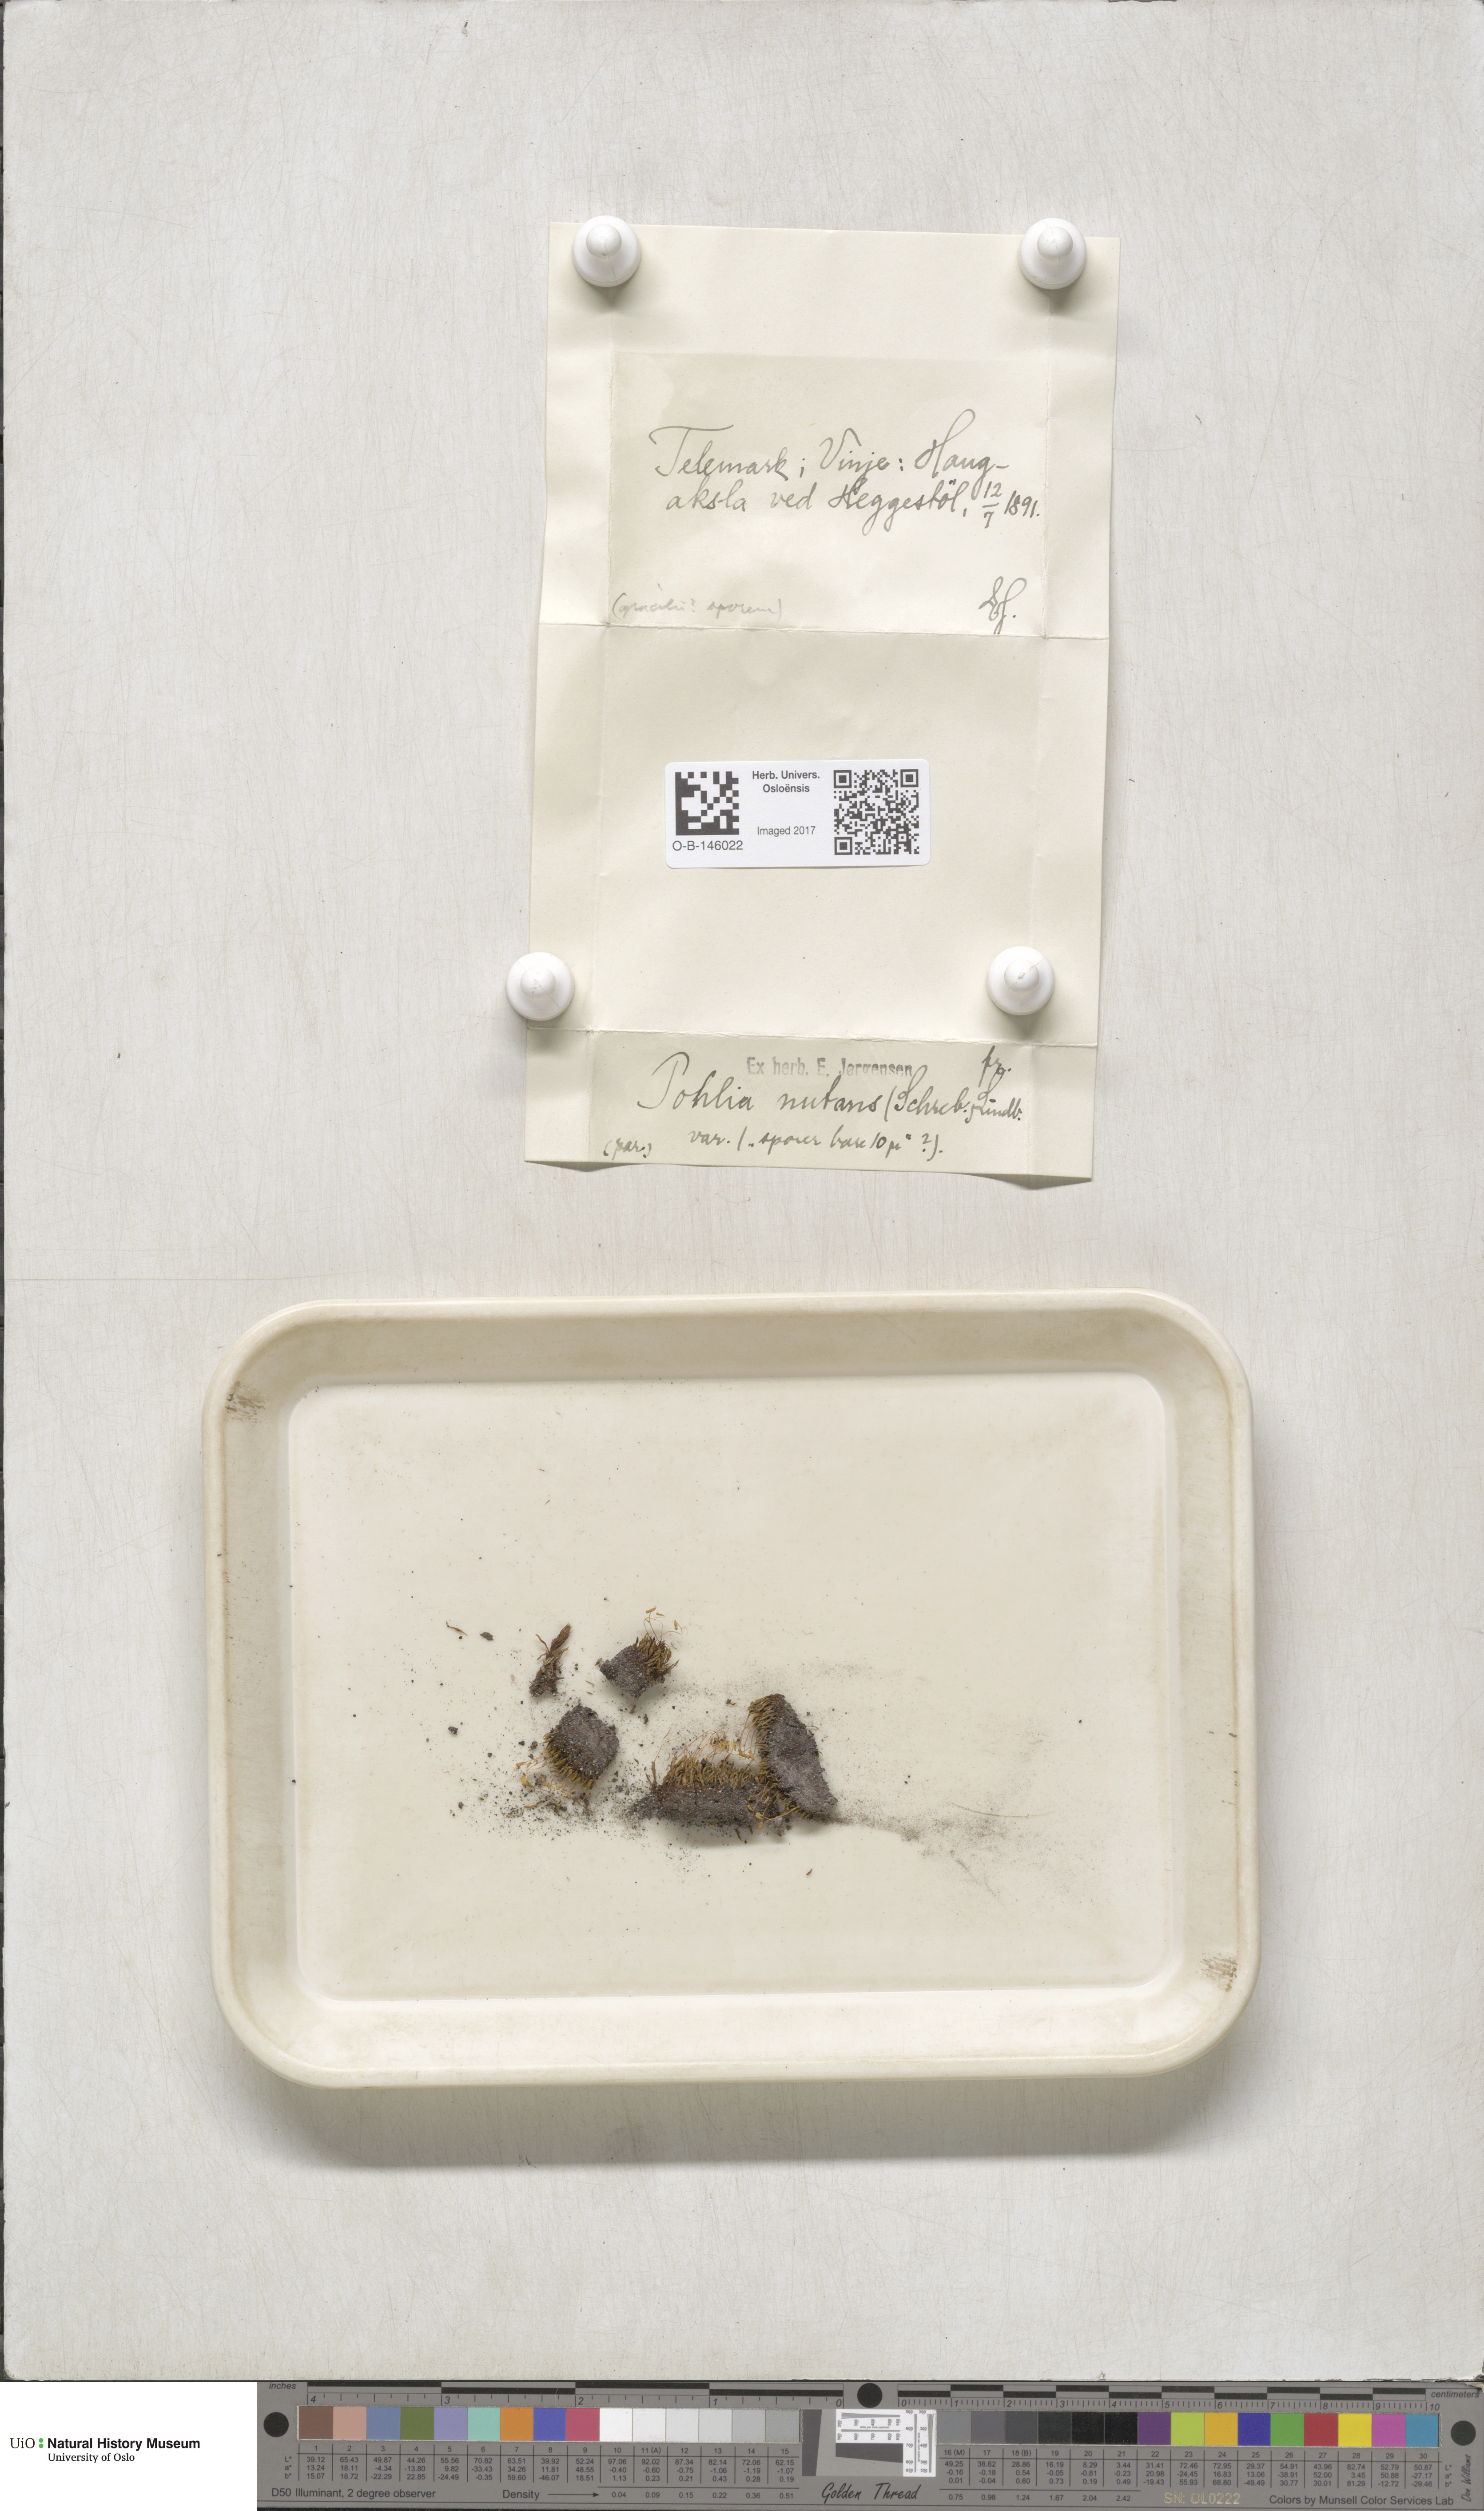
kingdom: Plantae
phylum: Bryophyta
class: Bryopsida
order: Bryales
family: Mniaceae
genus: Pohlia
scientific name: Pohlia nutans
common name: Nodding thread-moss
